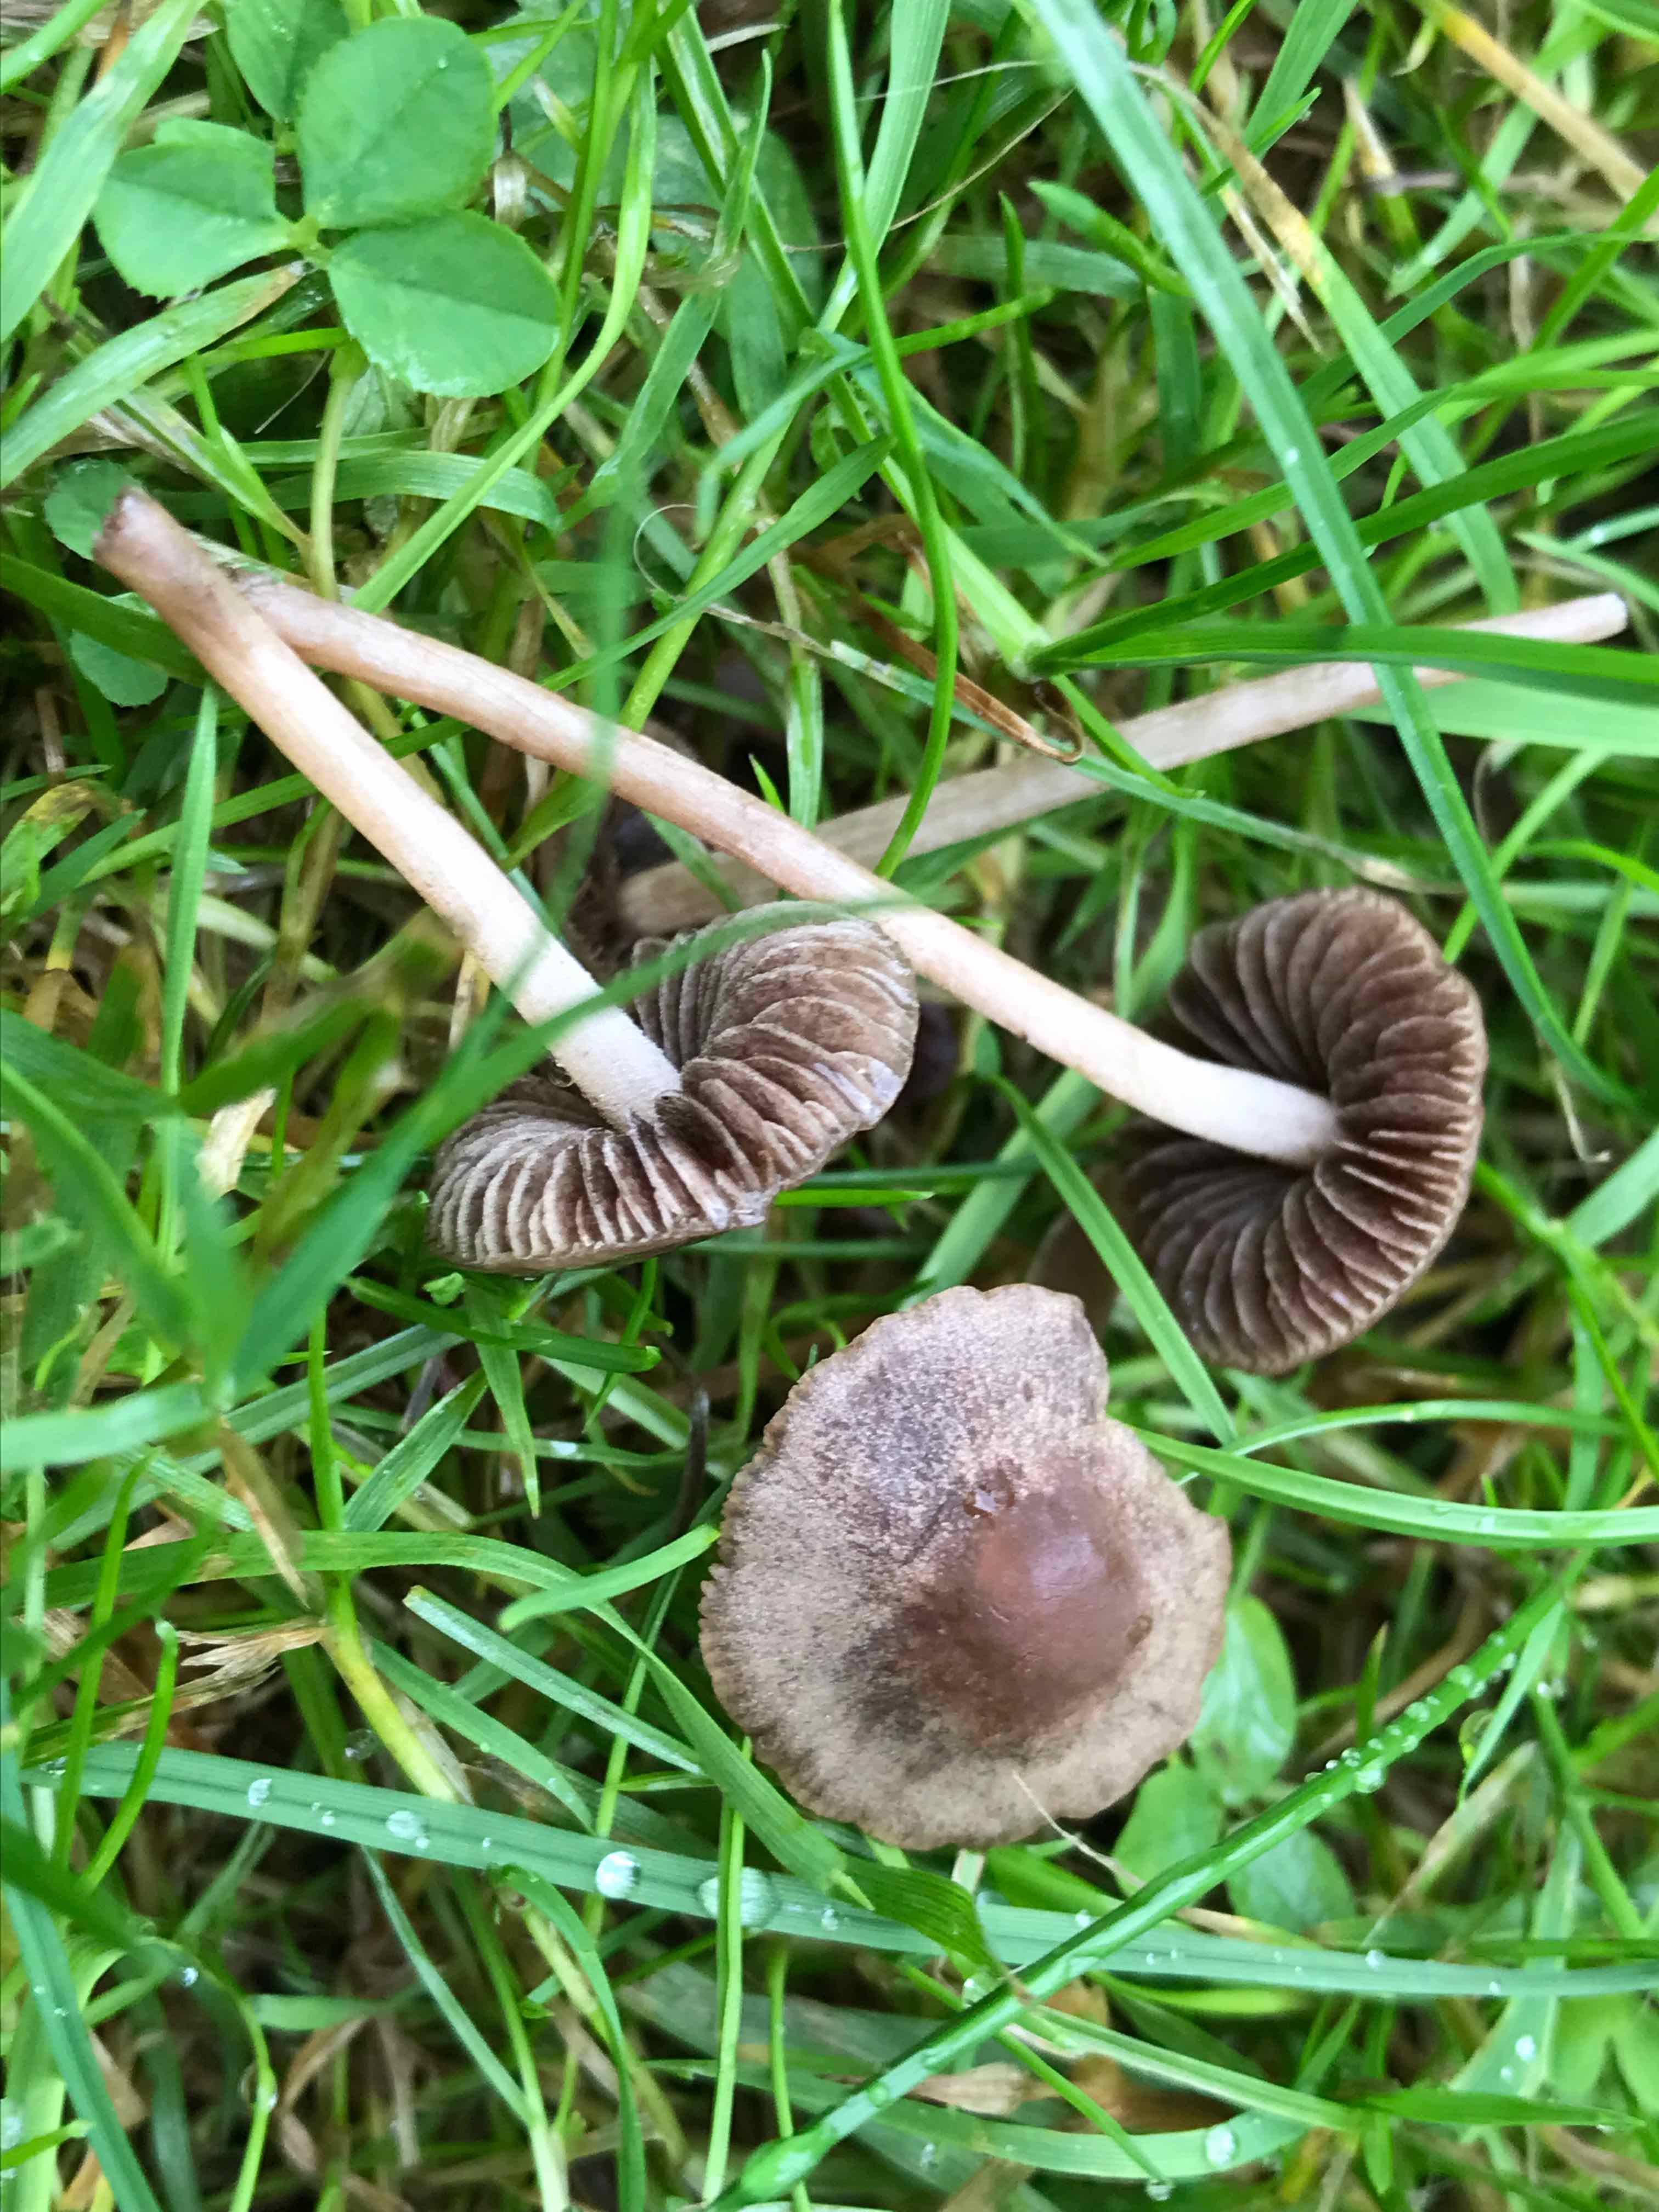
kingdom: Fungi
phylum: Basidiomycota
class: Agaricomycetes
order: Agaricales
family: Bolbitiaceae
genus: Panaeolina
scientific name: Panaeolina foenisecii
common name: høslætsvamp
